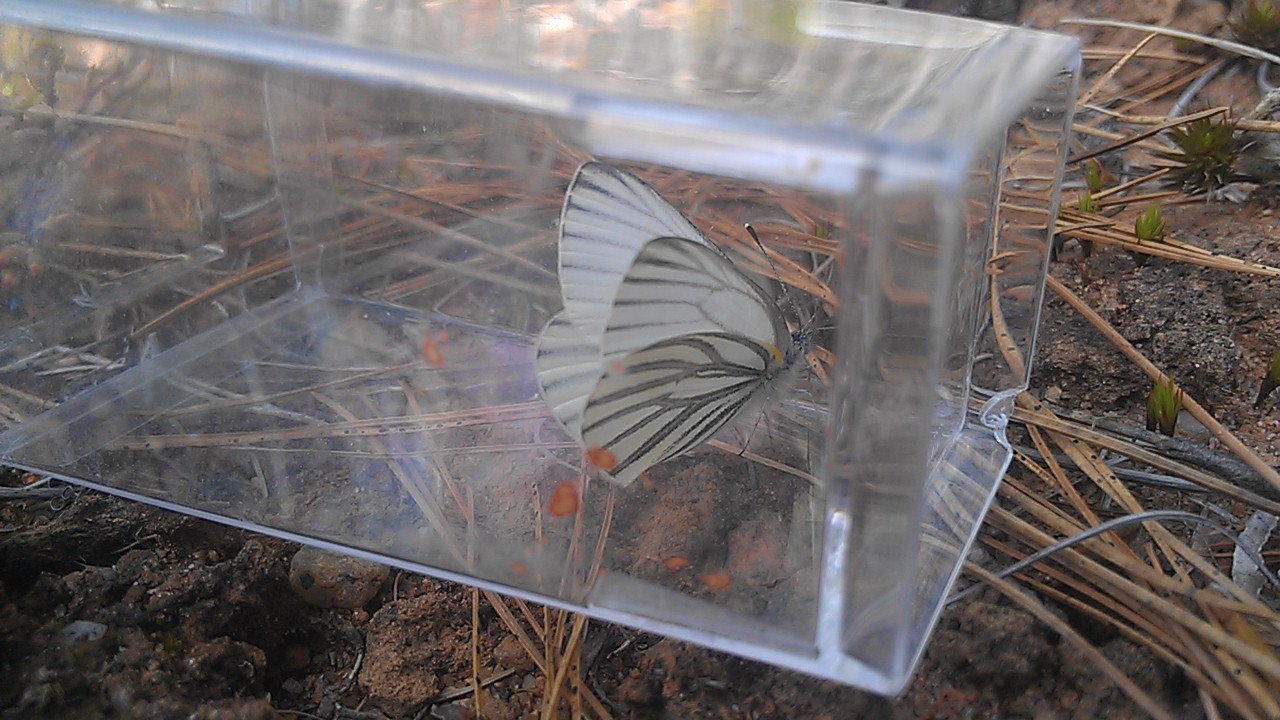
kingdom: Animalia
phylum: Arthropoda
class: Insecta
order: Lepidoptera
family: Pieridae
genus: Pieris
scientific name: Pieris oleracea
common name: Mustard White
